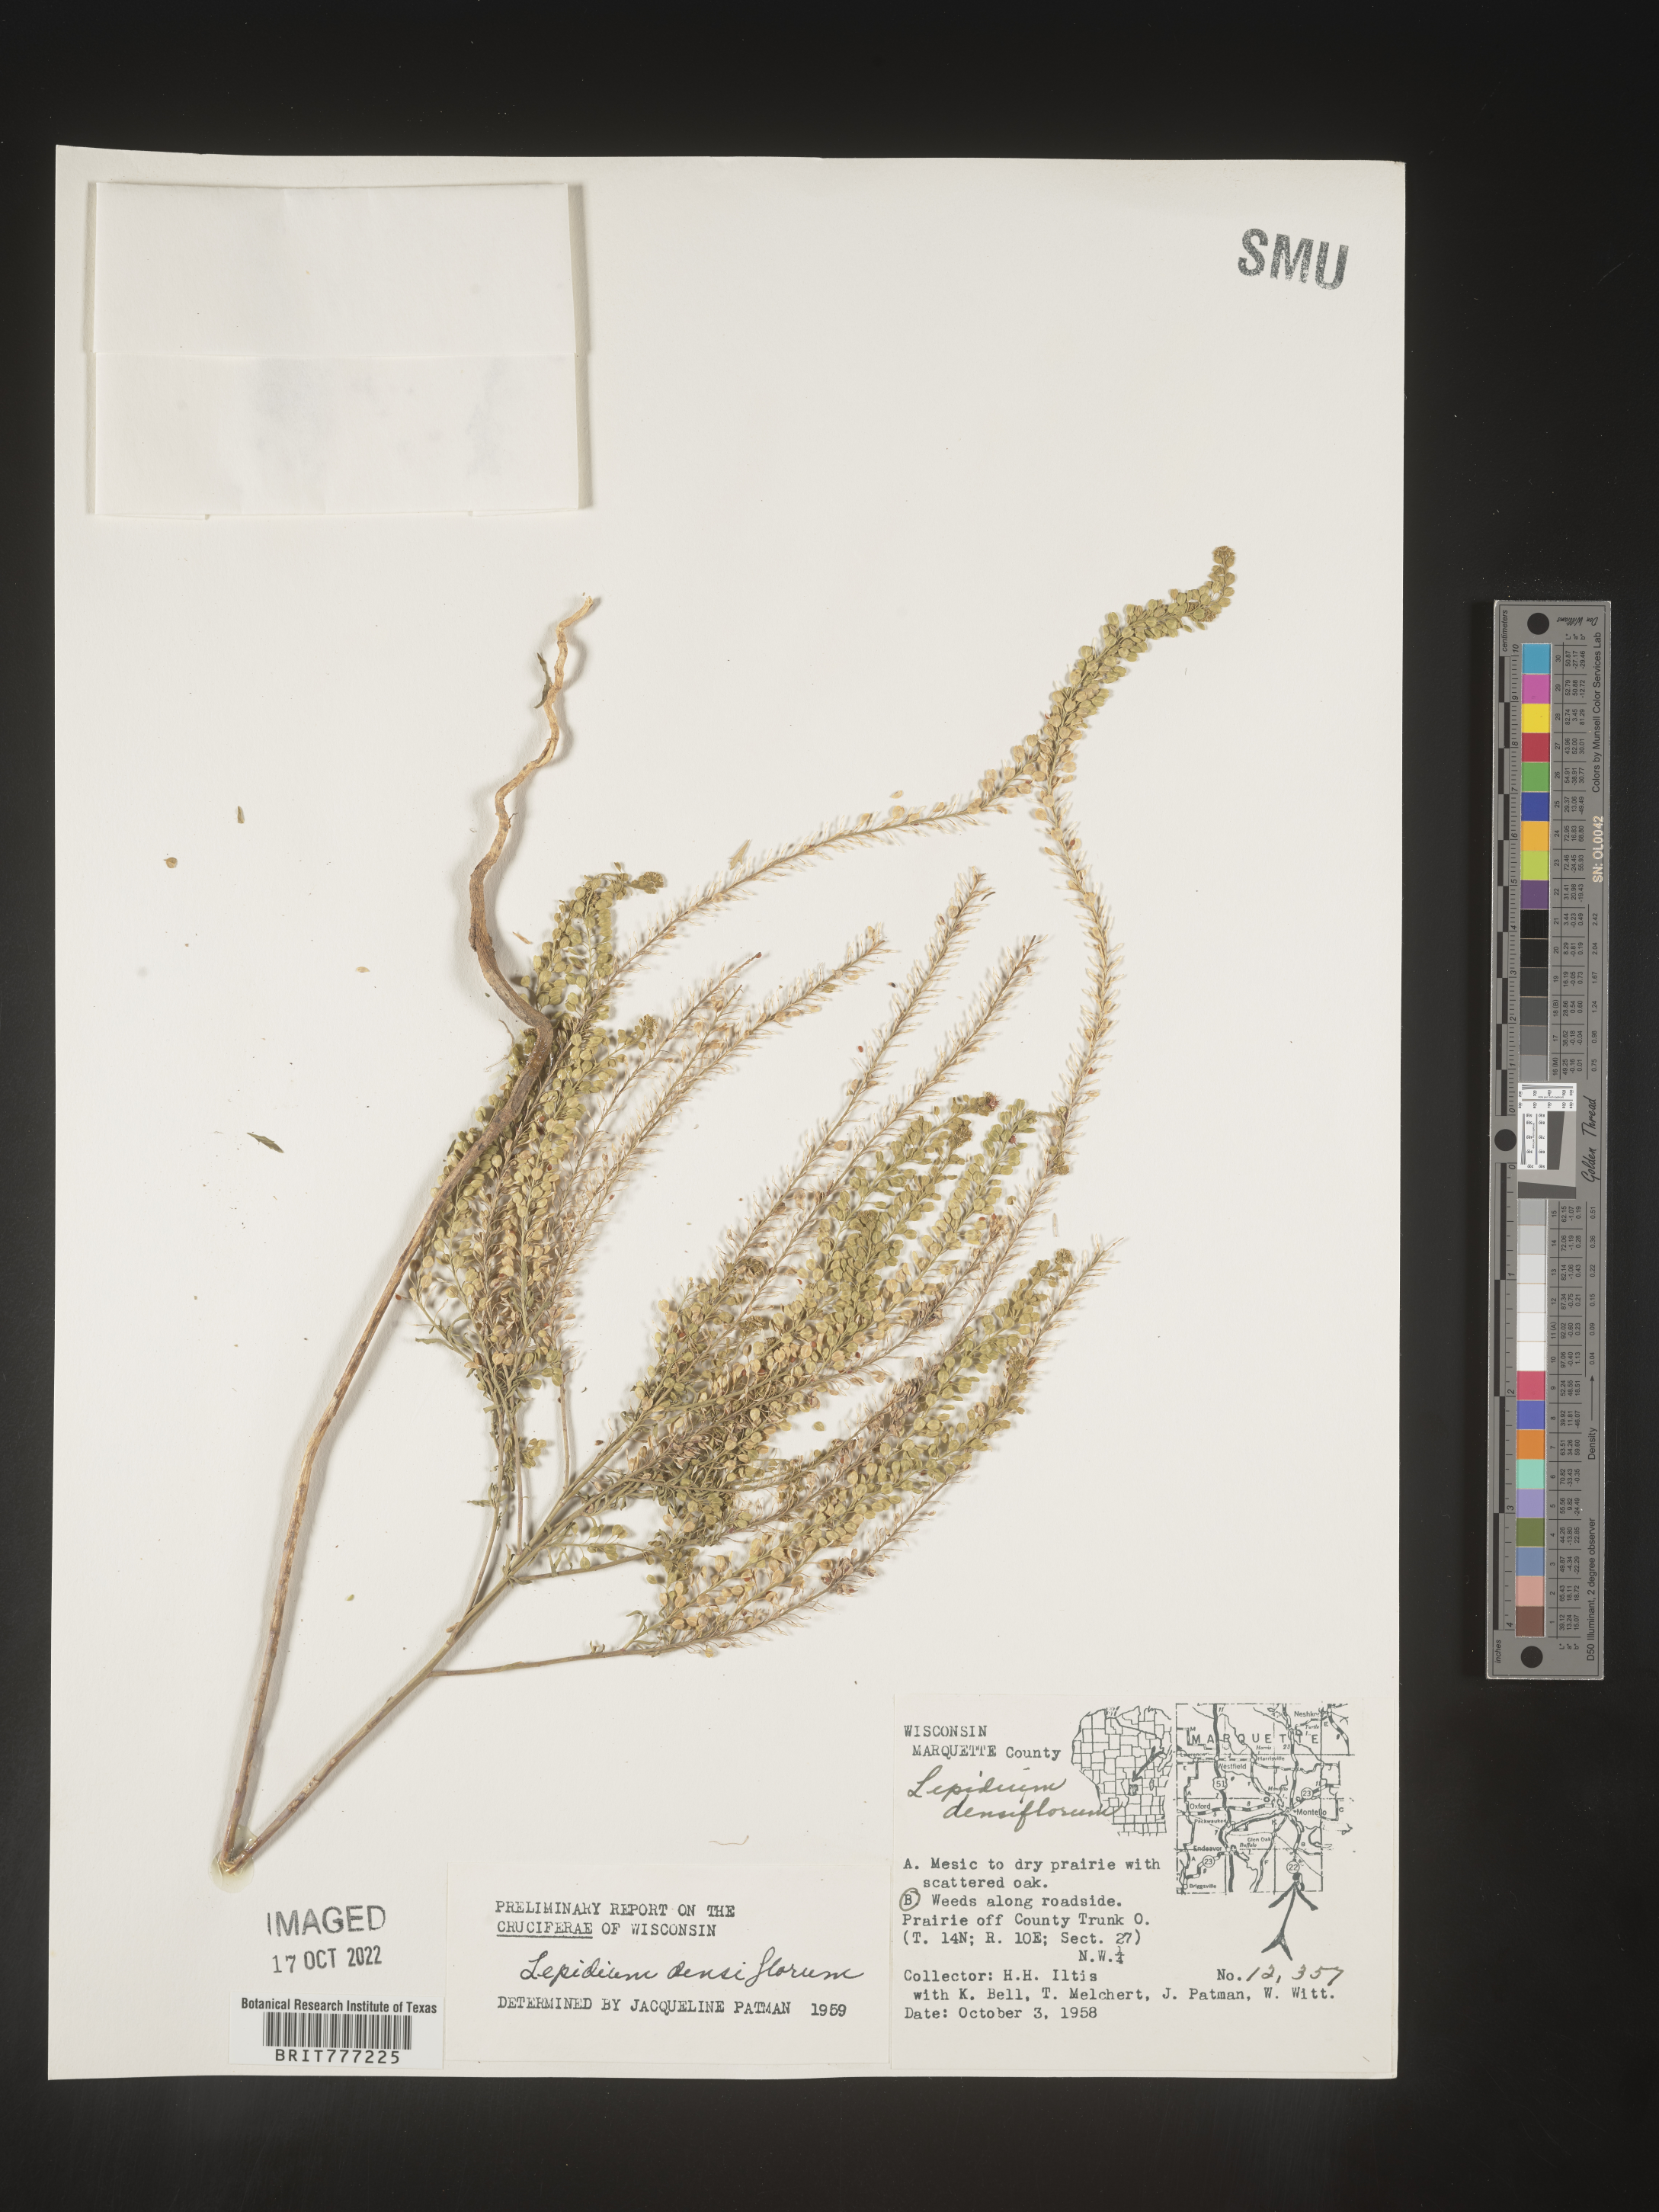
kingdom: Plantae
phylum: Tracheophyta
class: Magnoliopsida
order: Brassicales
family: Brassicaceae
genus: Lepidium
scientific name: Lepidium densiflorum
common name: Miner's pepperwort
